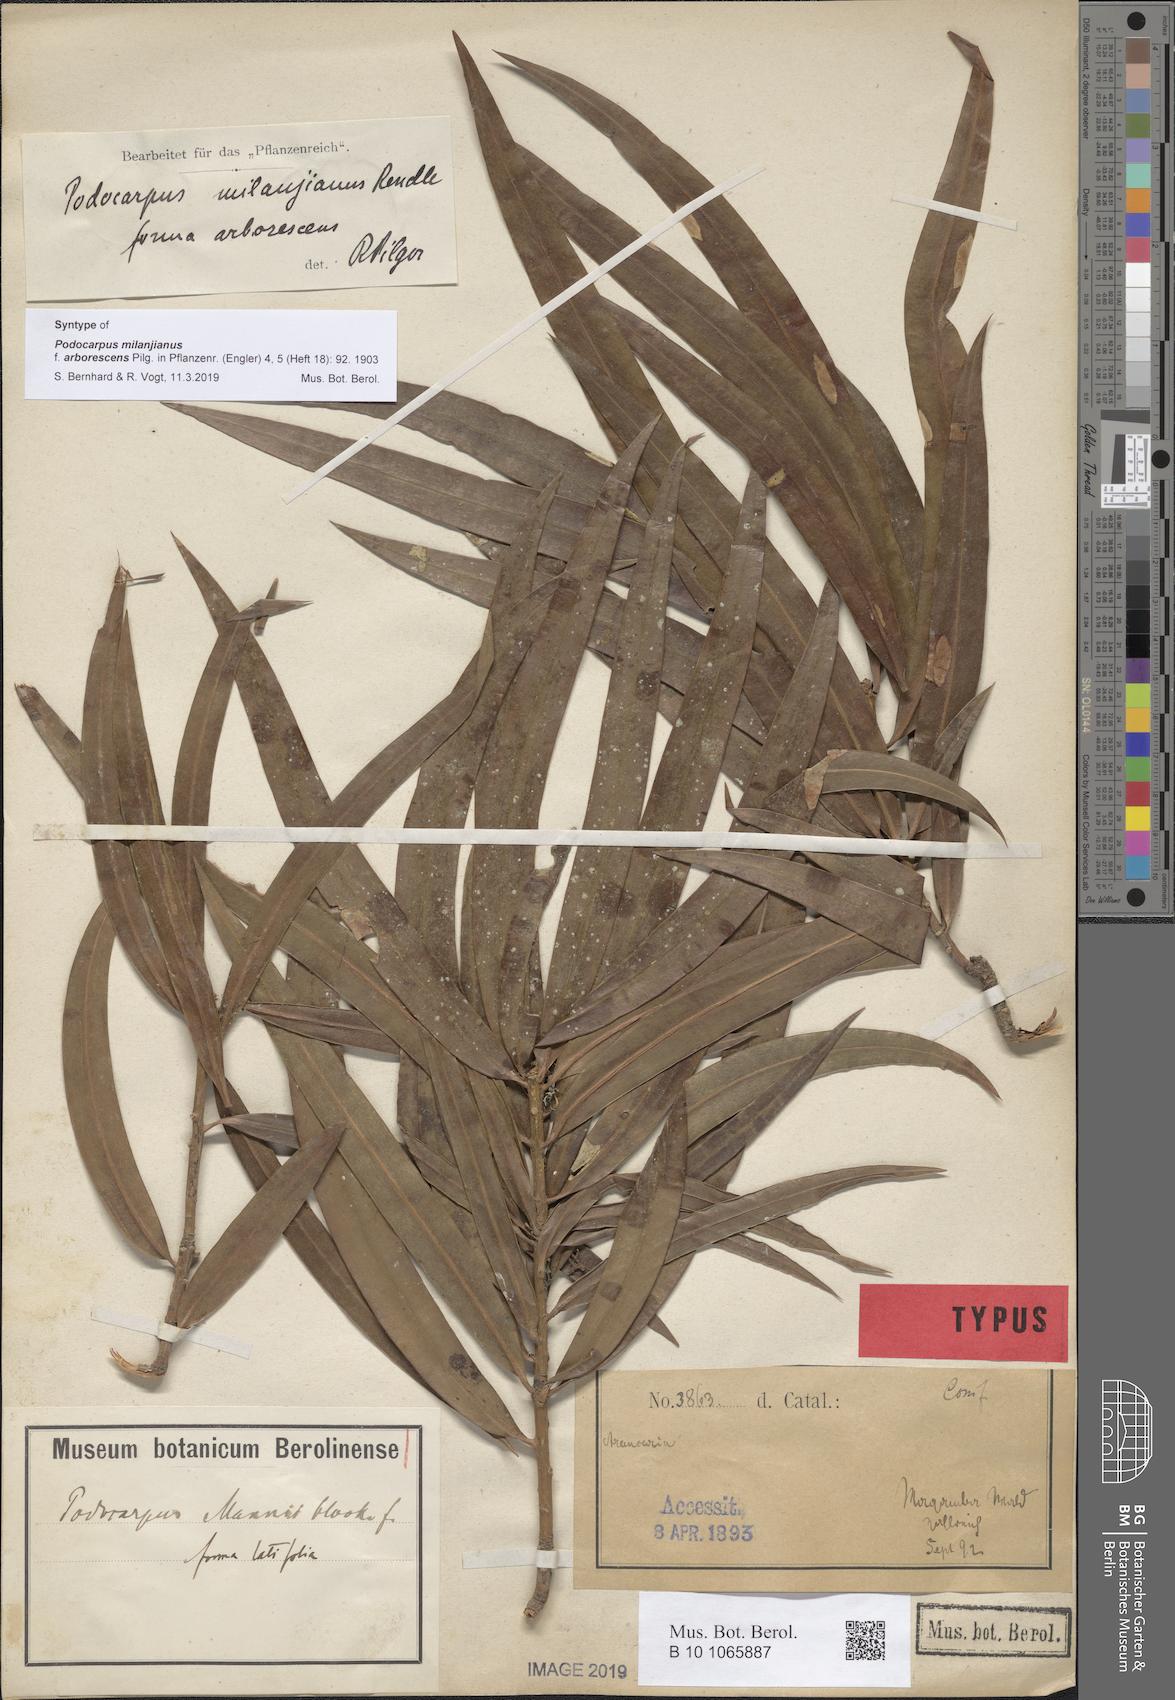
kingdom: Plantae
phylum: Tracheophyta
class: Pinopsida
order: Pinales
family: Podocarpaceae
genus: Podocarpus
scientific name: Podocarpus milanjianus
